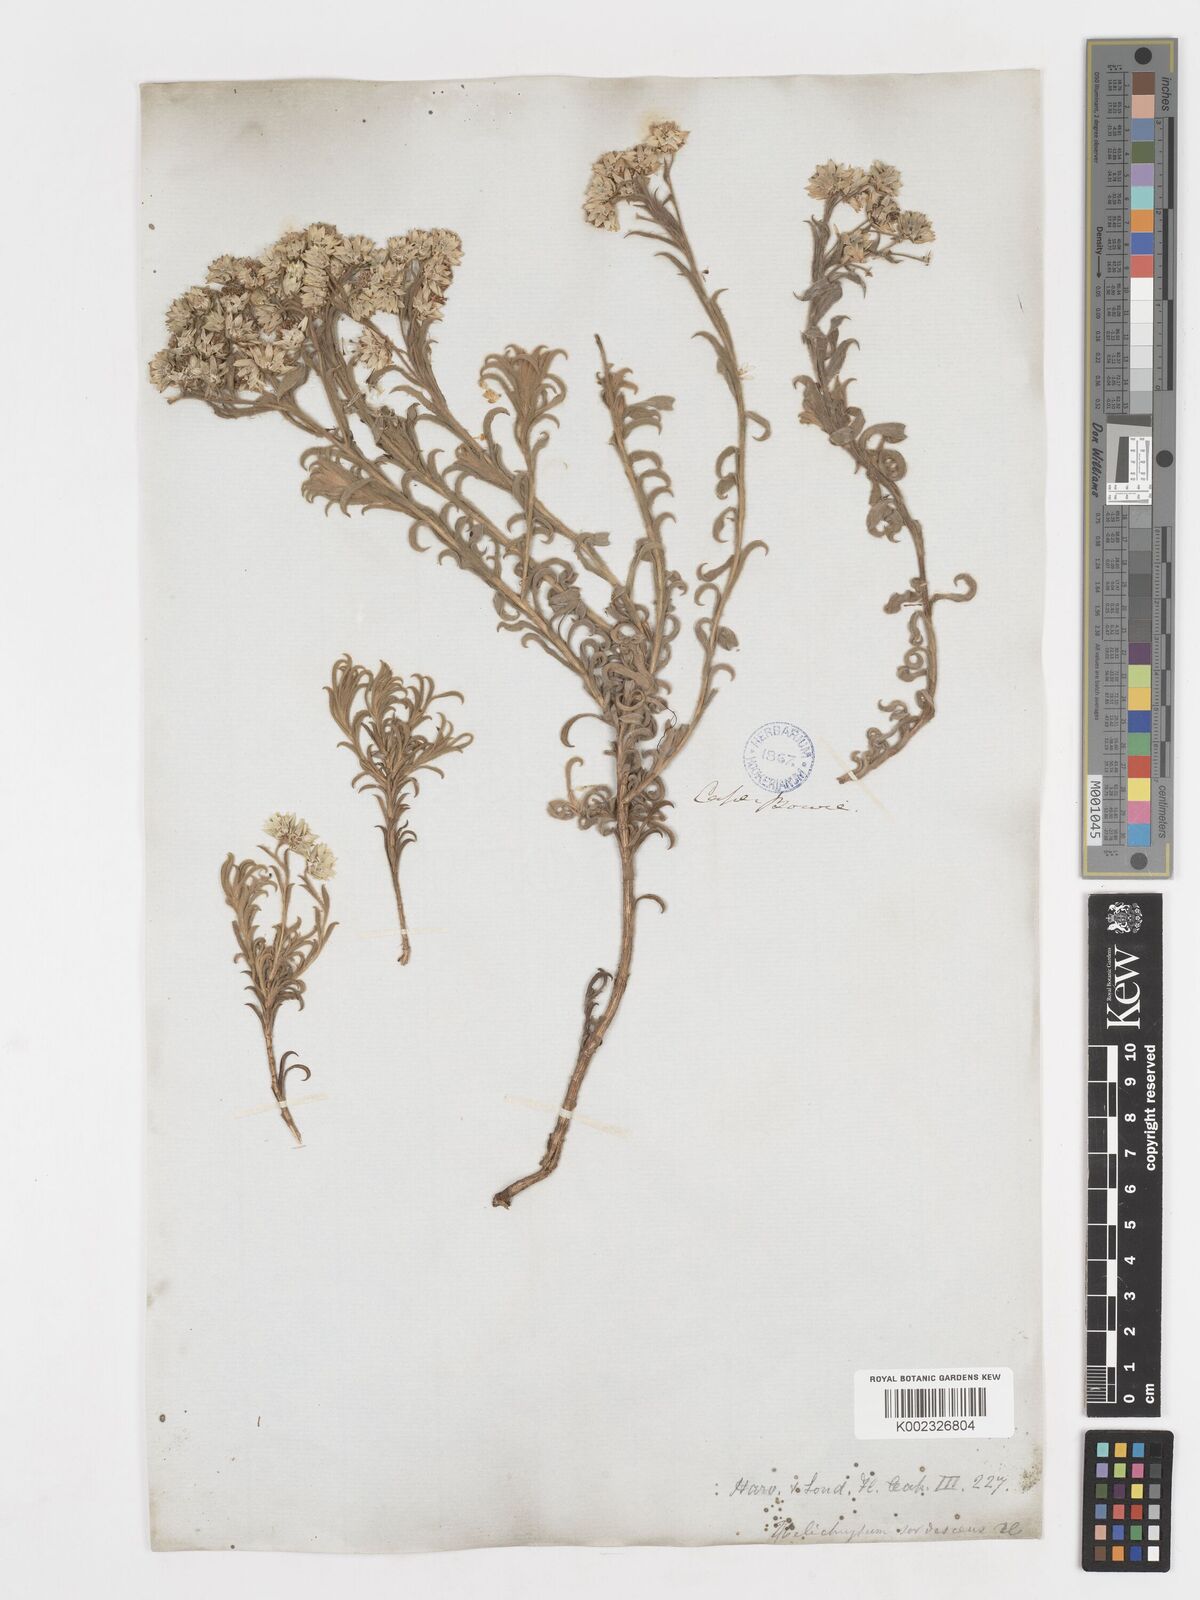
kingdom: Plantae
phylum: Tracheophyta
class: Magnoliopsida
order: Asterales
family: Asteraceae
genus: Achyranthemum
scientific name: Achyranthemum sordescens
